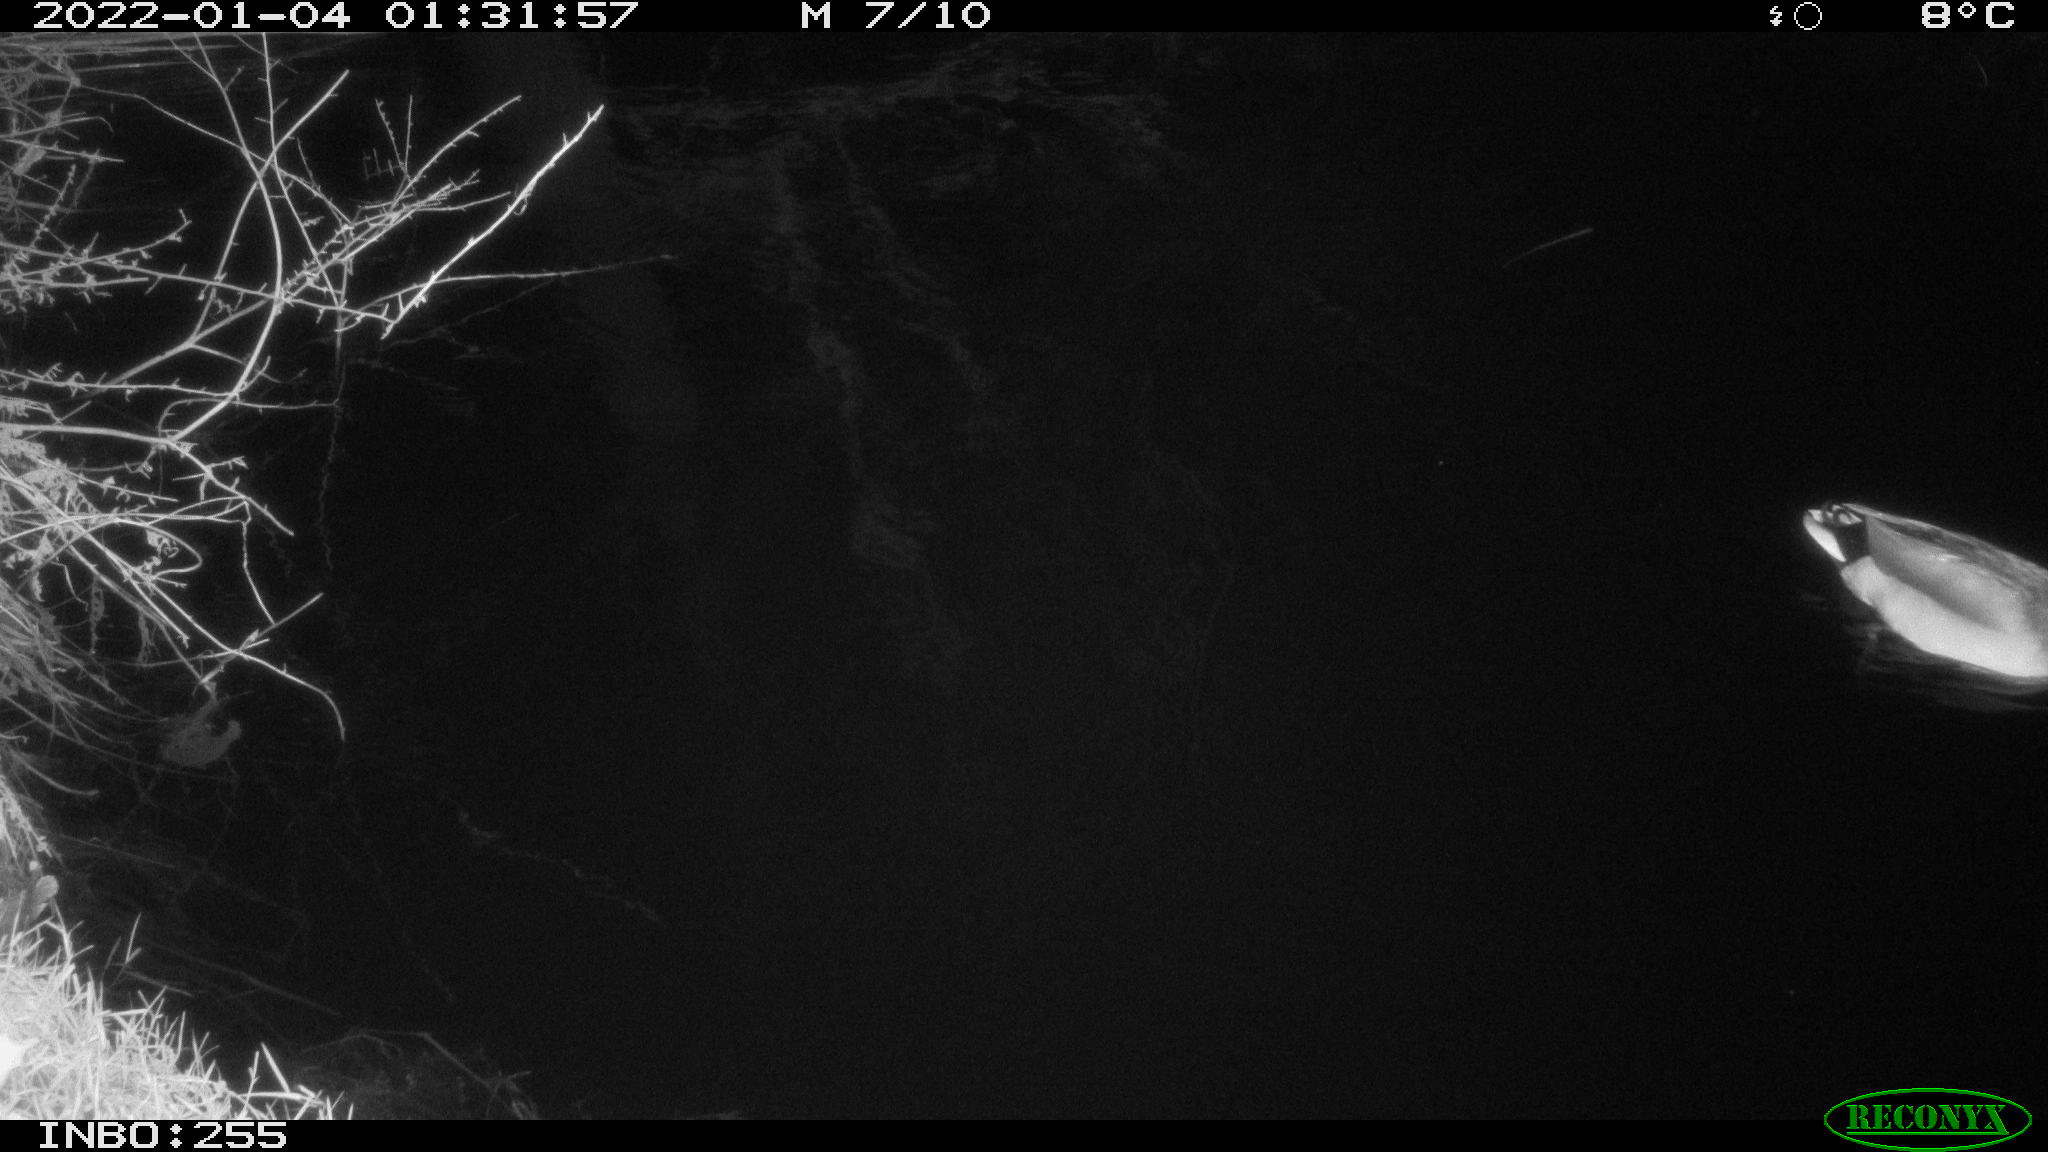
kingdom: Animalia
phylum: Chordata
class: Aves
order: Anseriformes
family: Anatidae
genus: Anas
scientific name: Anas
